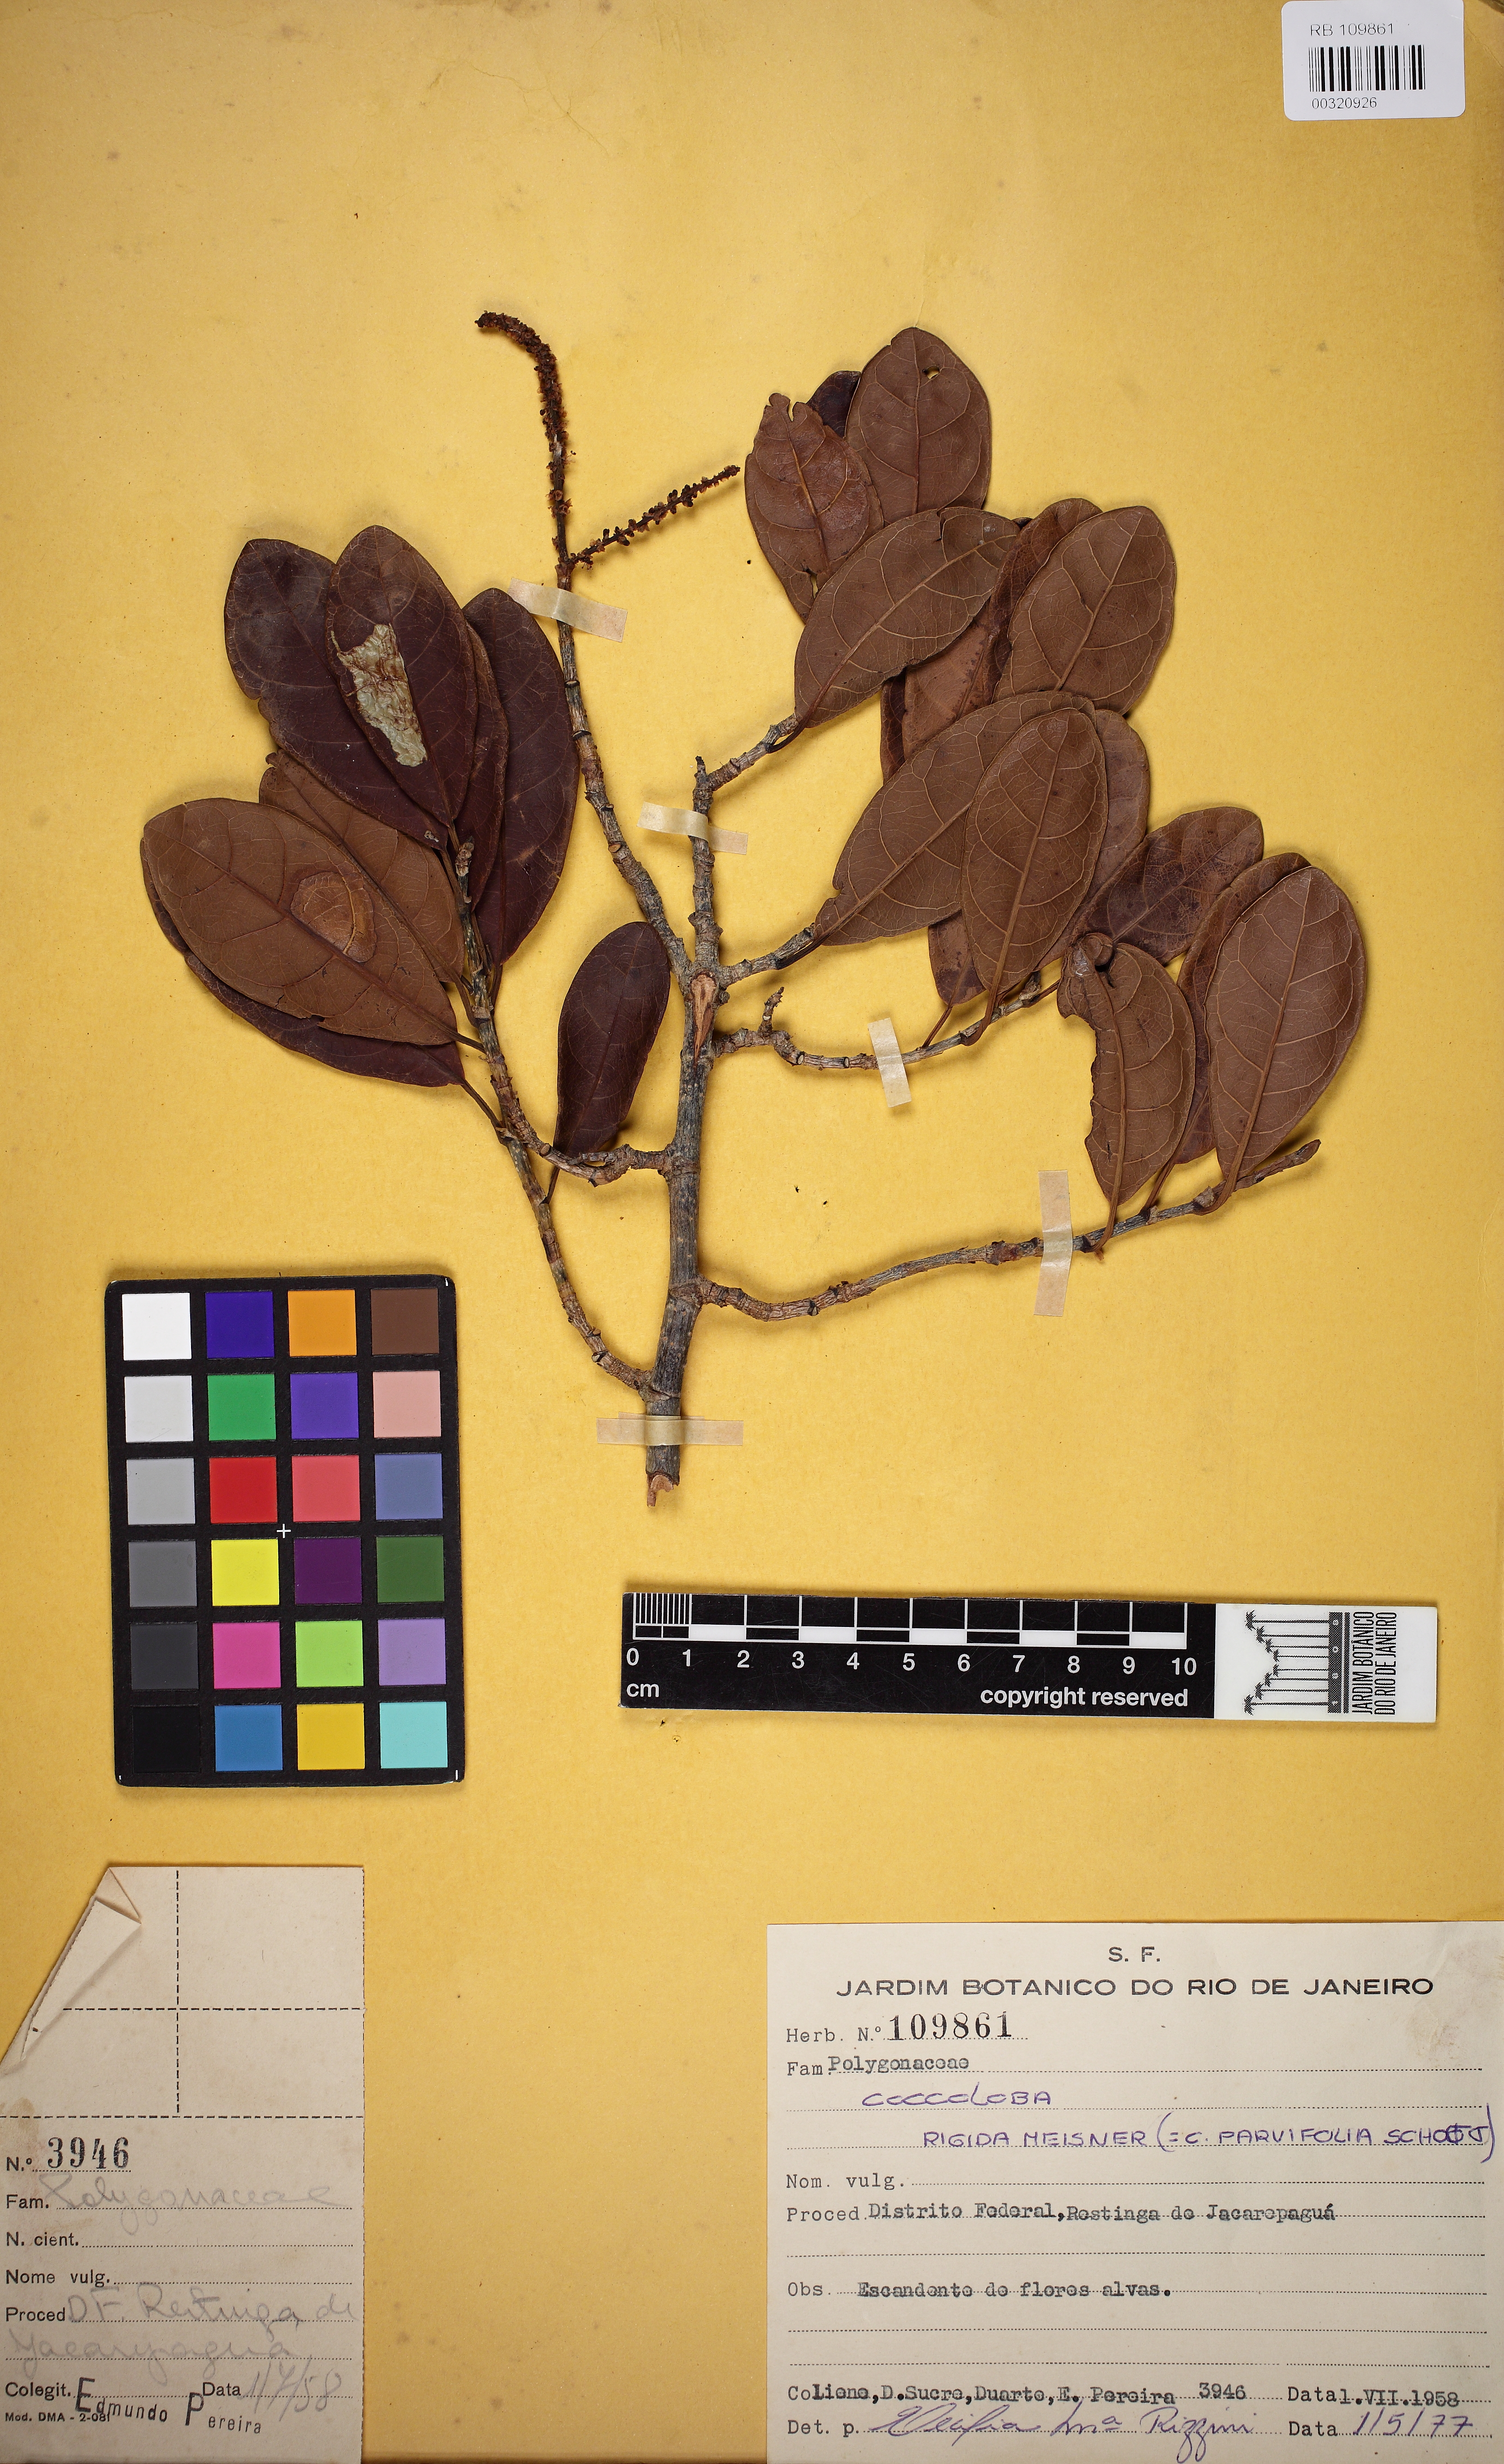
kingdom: Plantae
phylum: Tracheophyta
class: Magnoliopsida
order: Caryophyllales
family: Polygonaceae
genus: Coccoloba
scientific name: Coccoloba rigida
